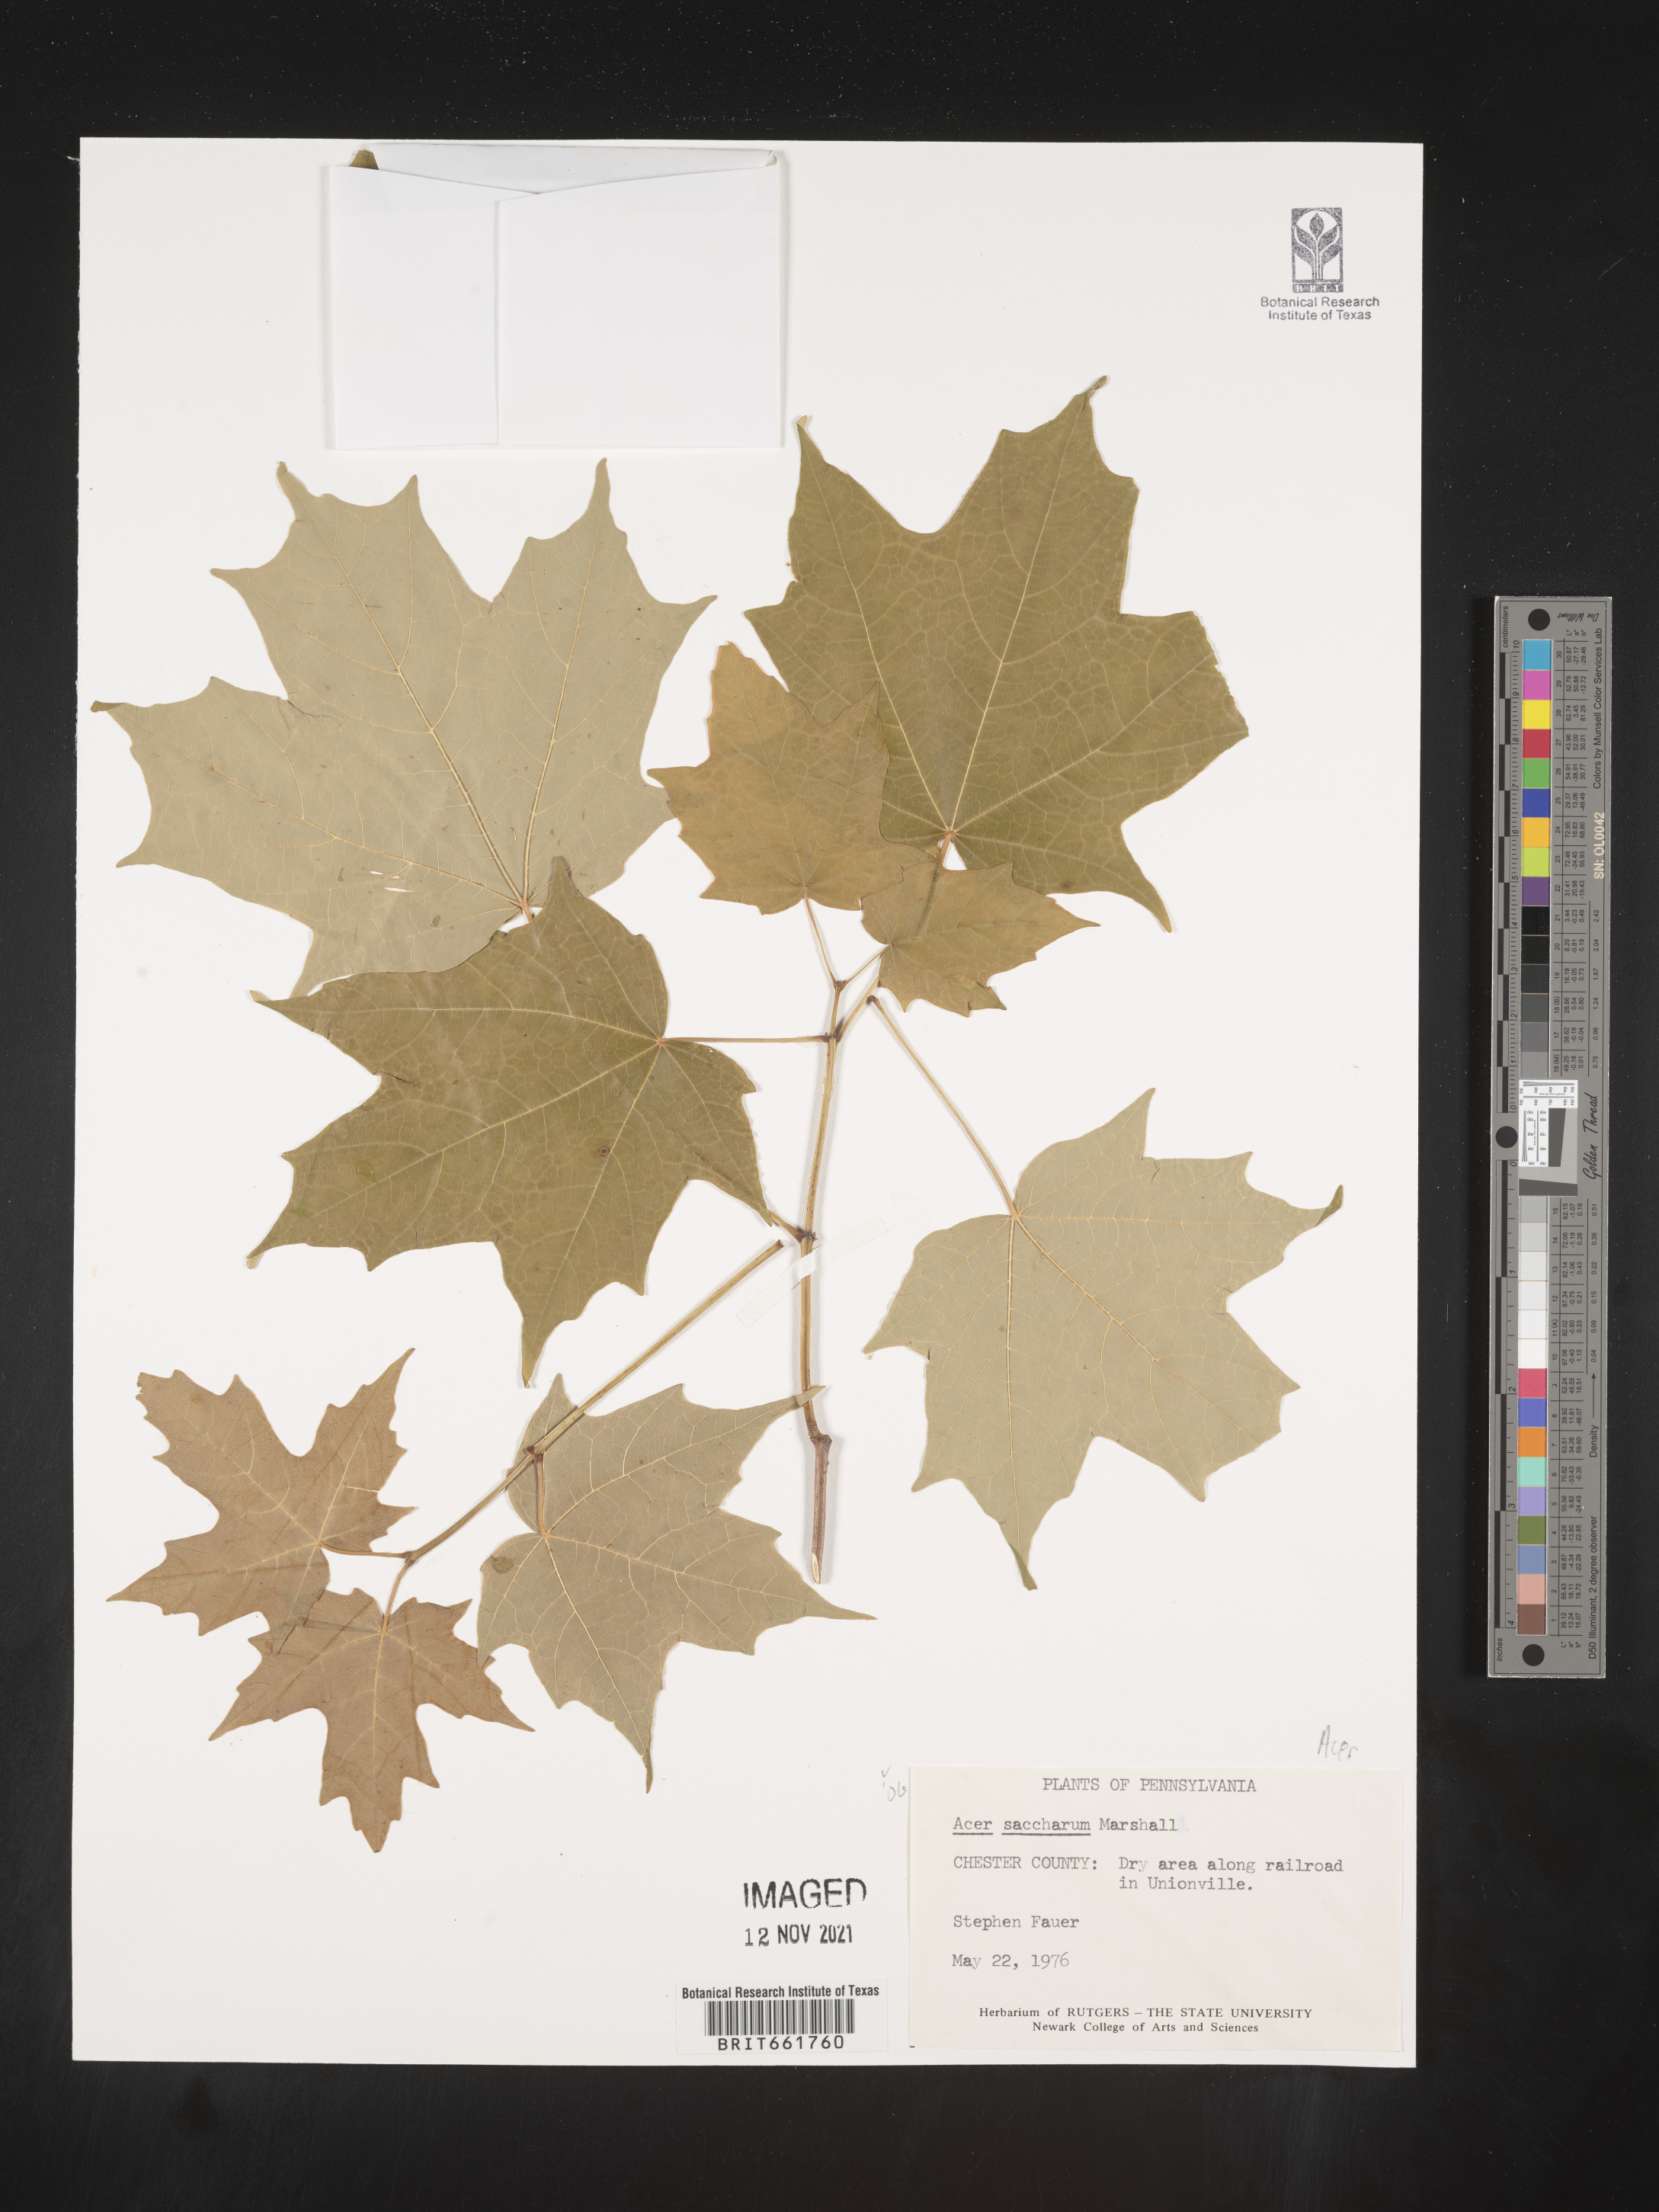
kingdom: Plantae
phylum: Tracheophyta
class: Magnoliopsida
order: Sapindales
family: Sapindaceae
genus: Acer
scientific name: Acer saccharinum
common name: Silver maple
